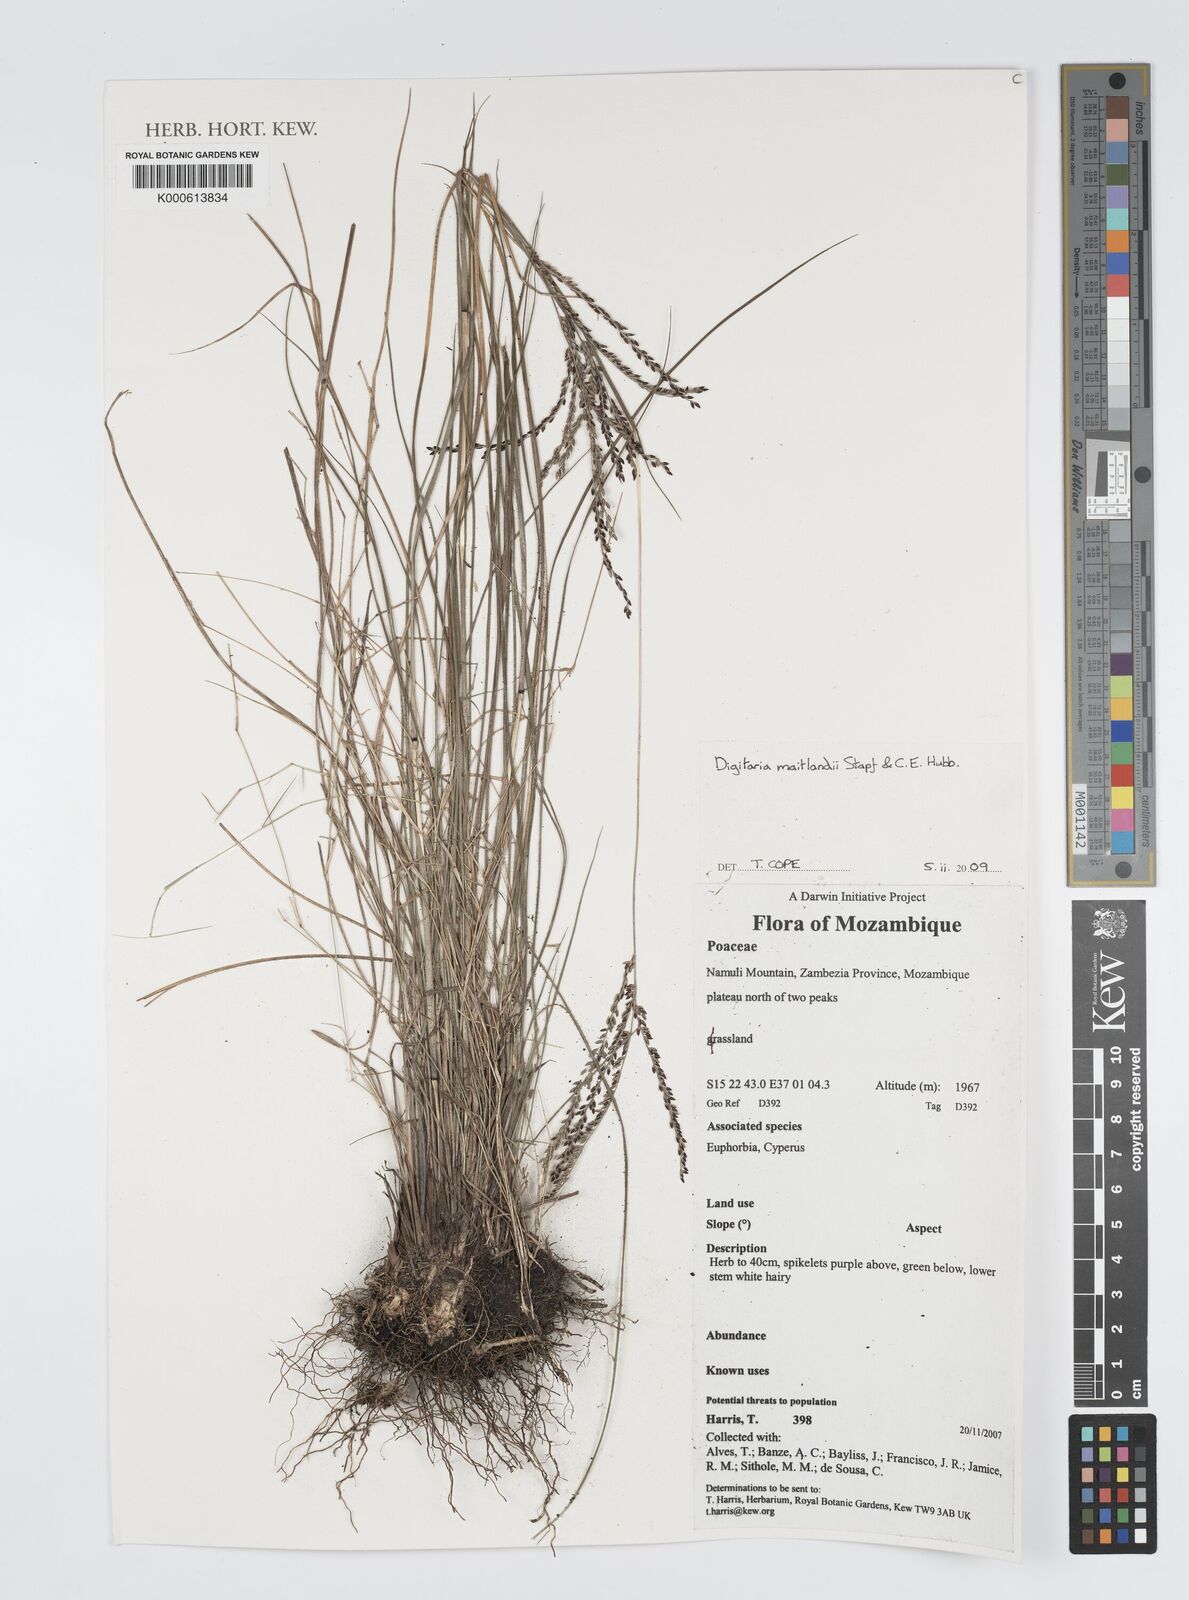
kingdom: Plantae
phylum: Tracheophyta
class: Liliopsida
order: Poales
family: Poaceae
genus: Digitaria
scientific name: Digitaria maitlandii
